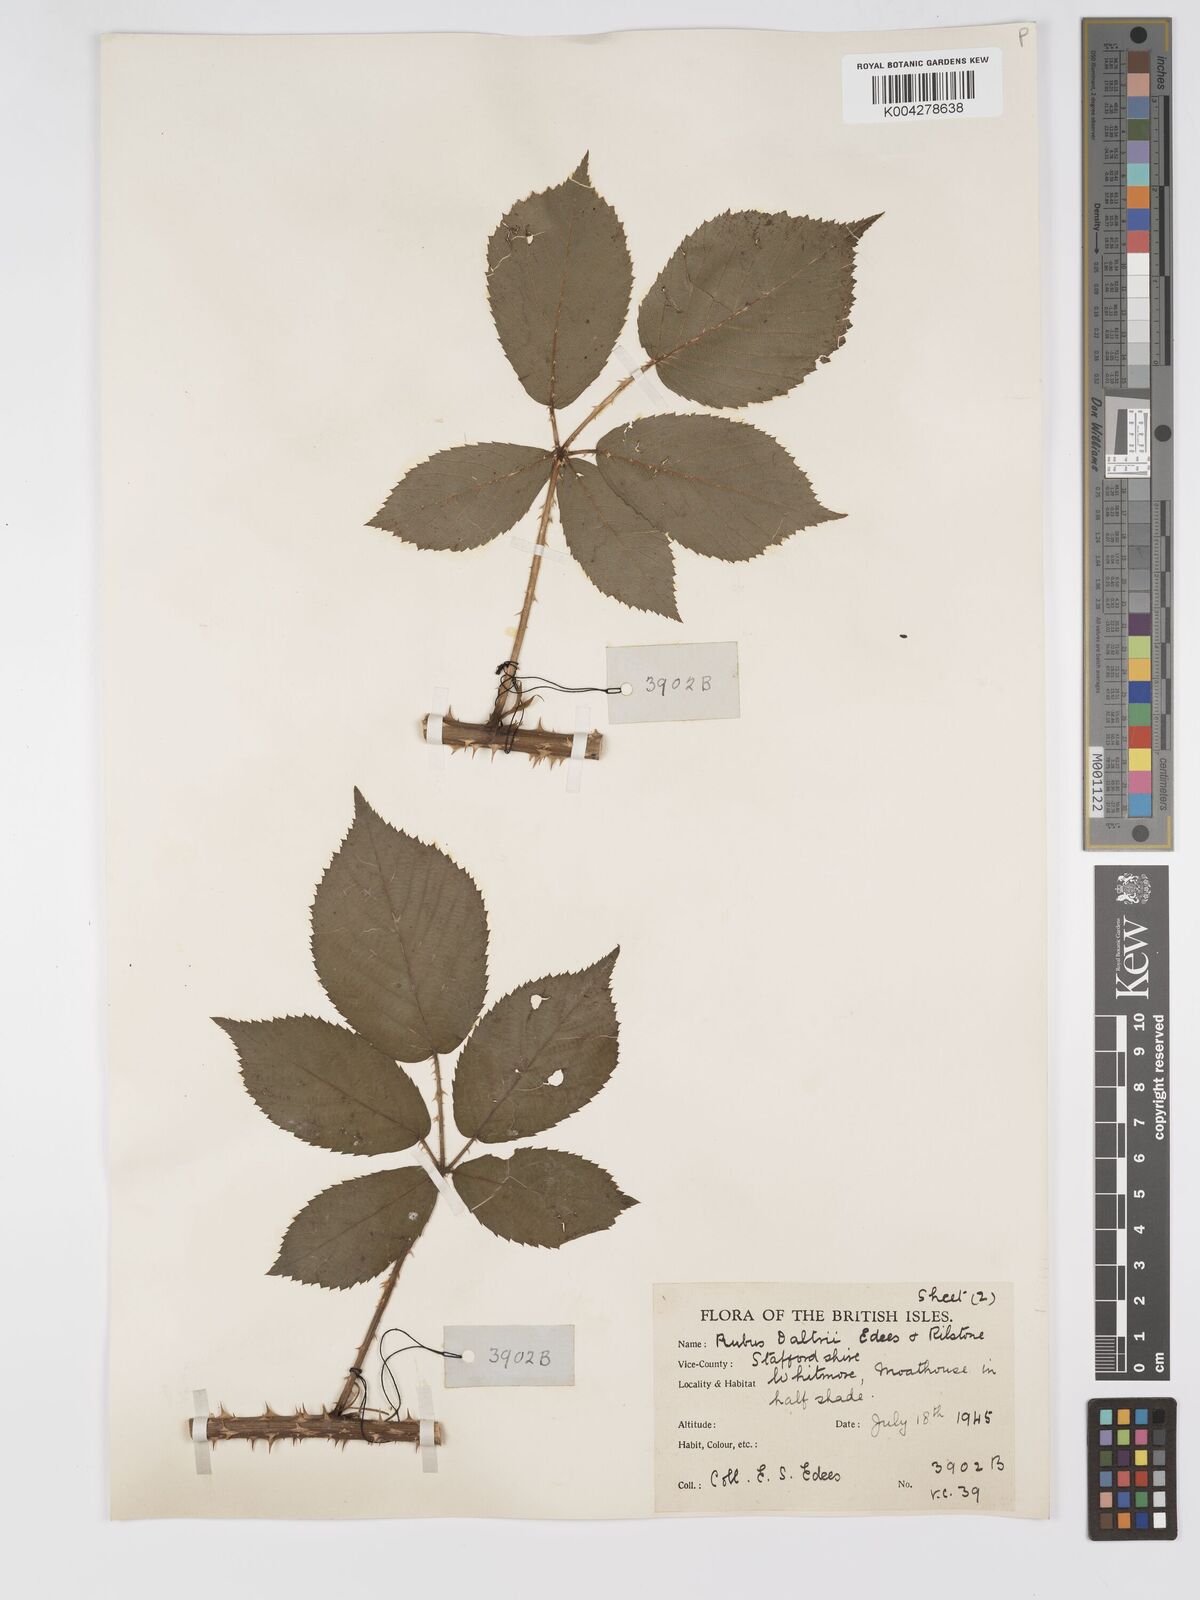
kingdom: Plantae
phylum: Tracheophyta
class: Magnoliopsida
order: Rosales
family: Rosaceae
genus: Rubus
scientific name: Rubus daltrii
